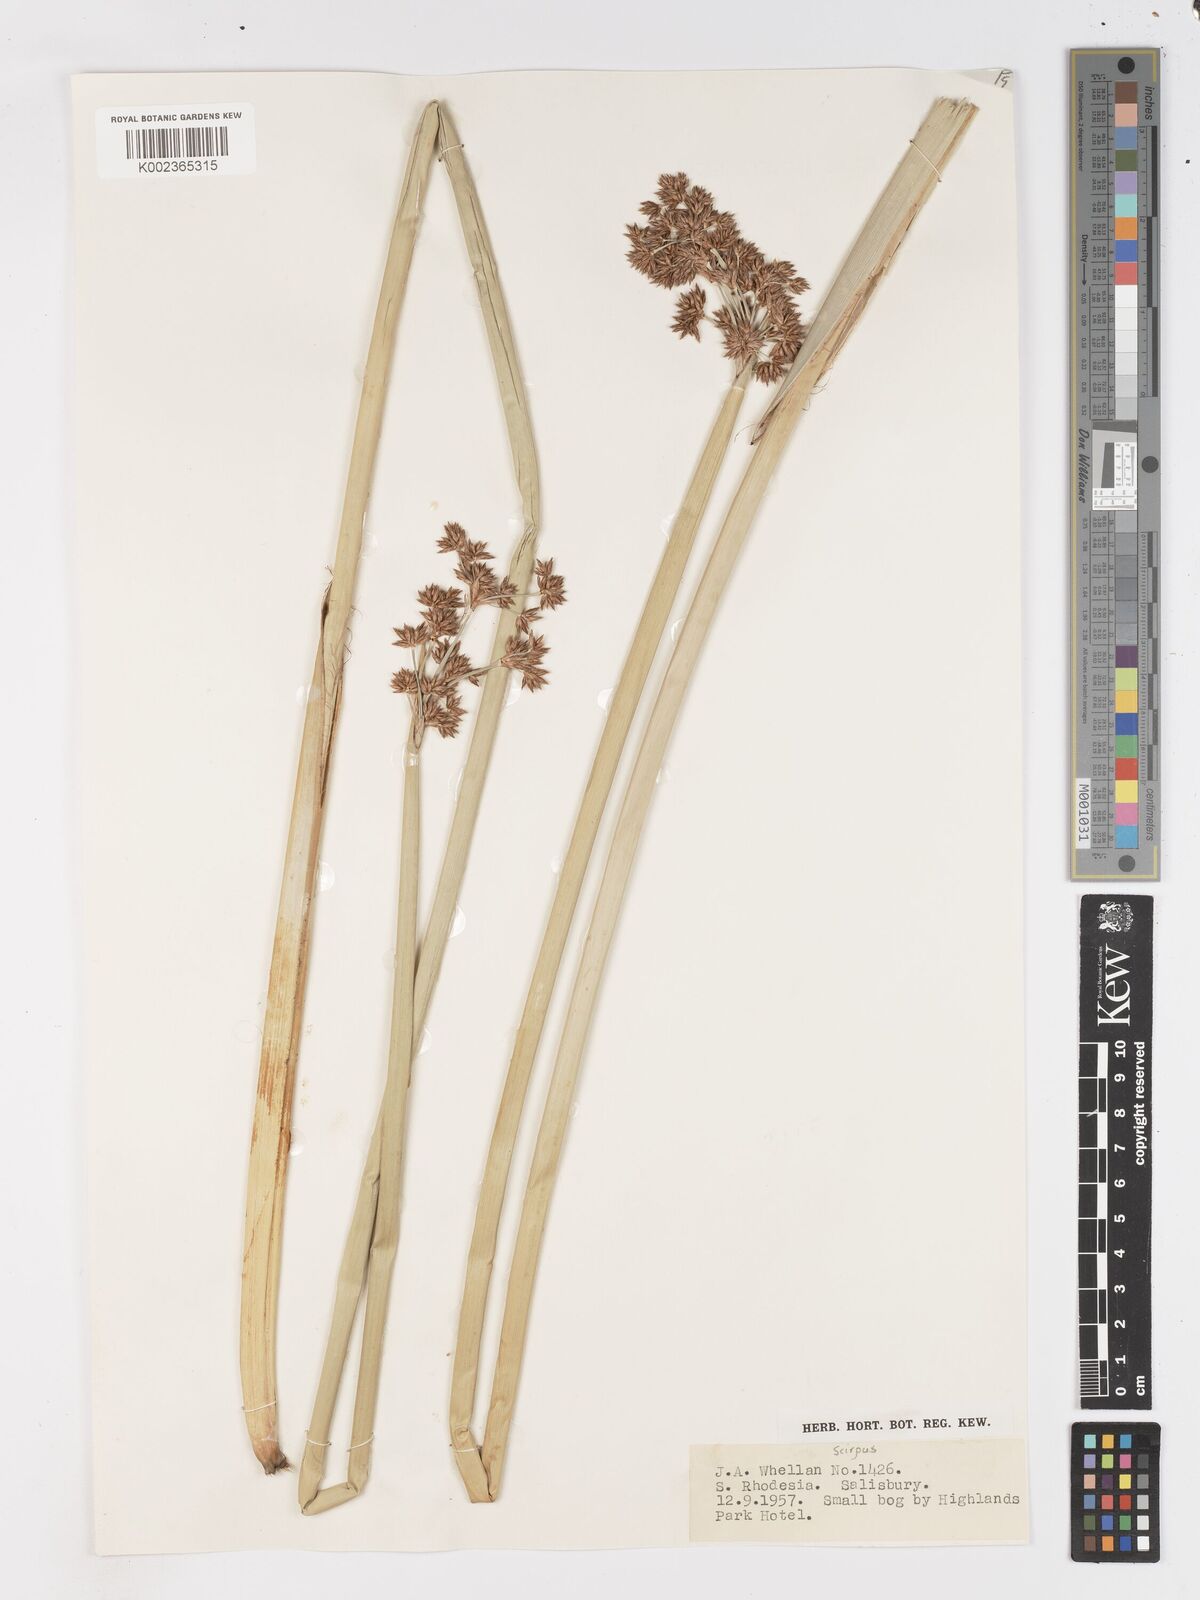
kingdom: Plantae
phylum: Tracheophyta
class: Liliopsida
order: Poales
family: Cyperaceae
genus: Schoenoplectus
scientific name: Schoenoplectus
